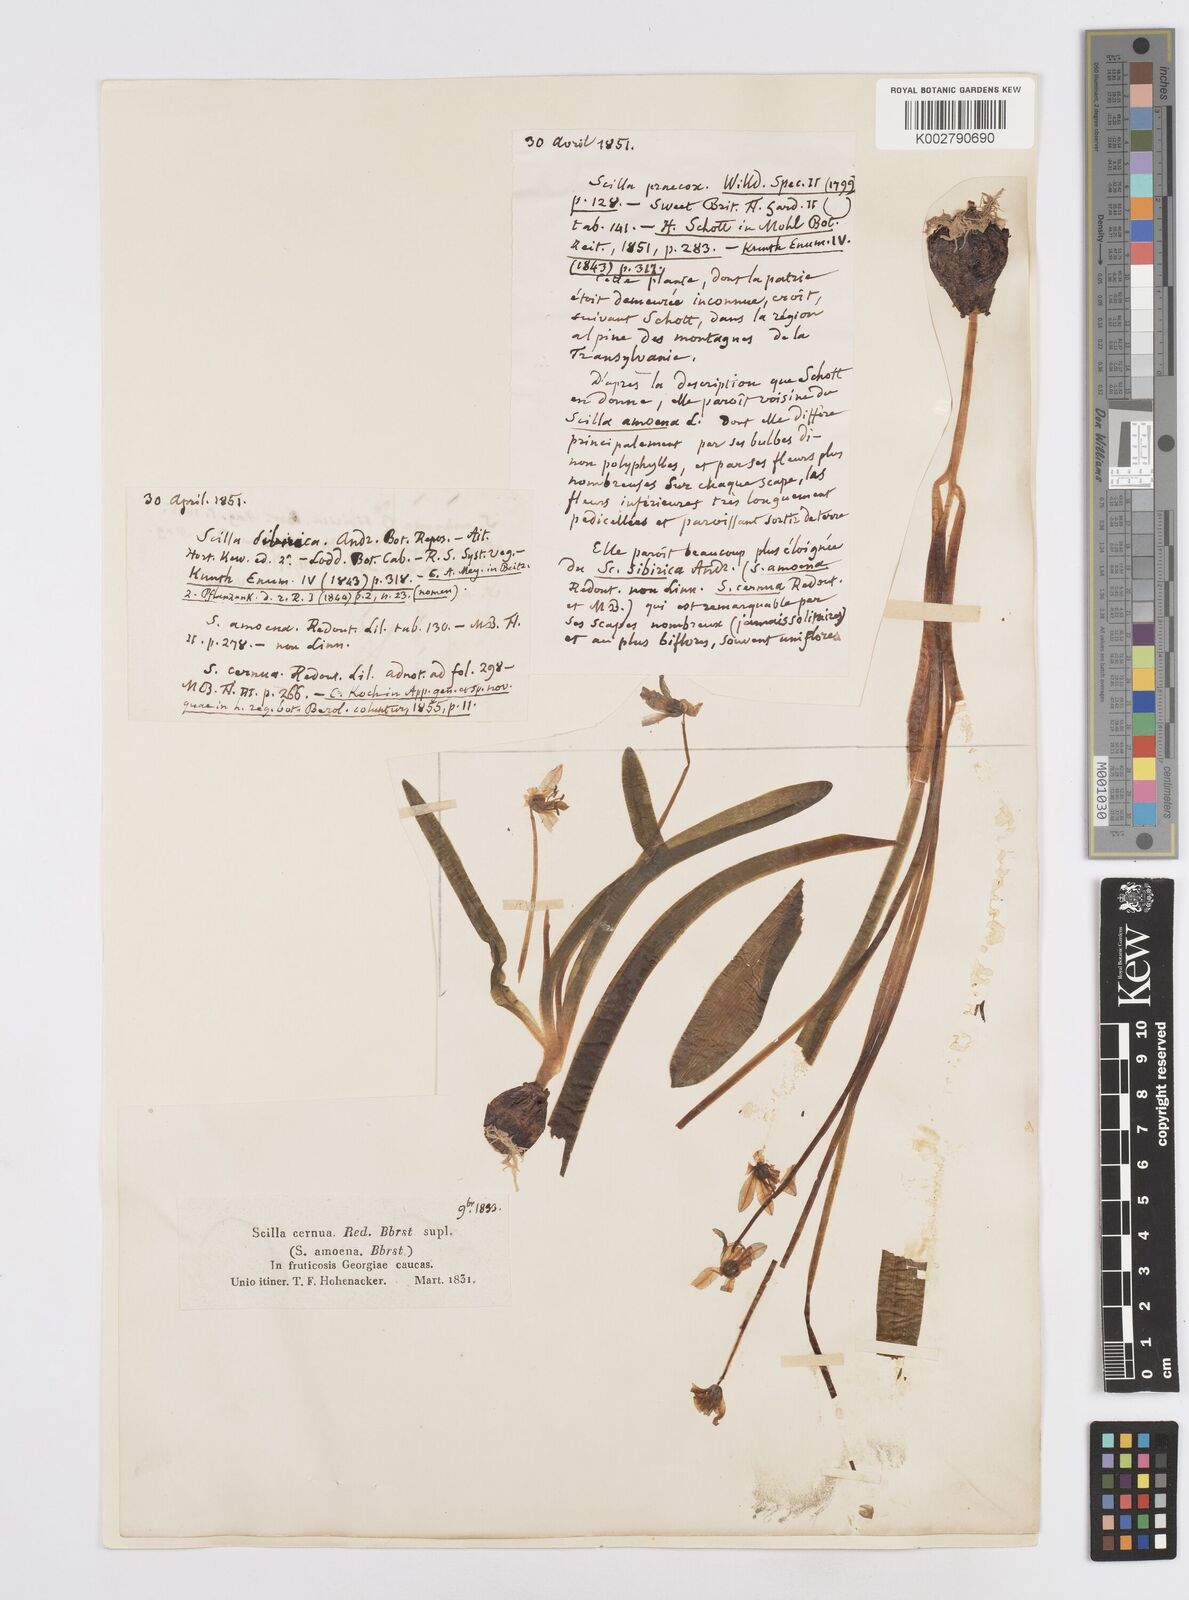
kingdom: Plantae
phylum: Tracheophyta
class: Liliopsida
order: Asparagales
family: Asparagaceae
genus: Scilla
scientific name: Scilla siberica
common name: Siberian squill
